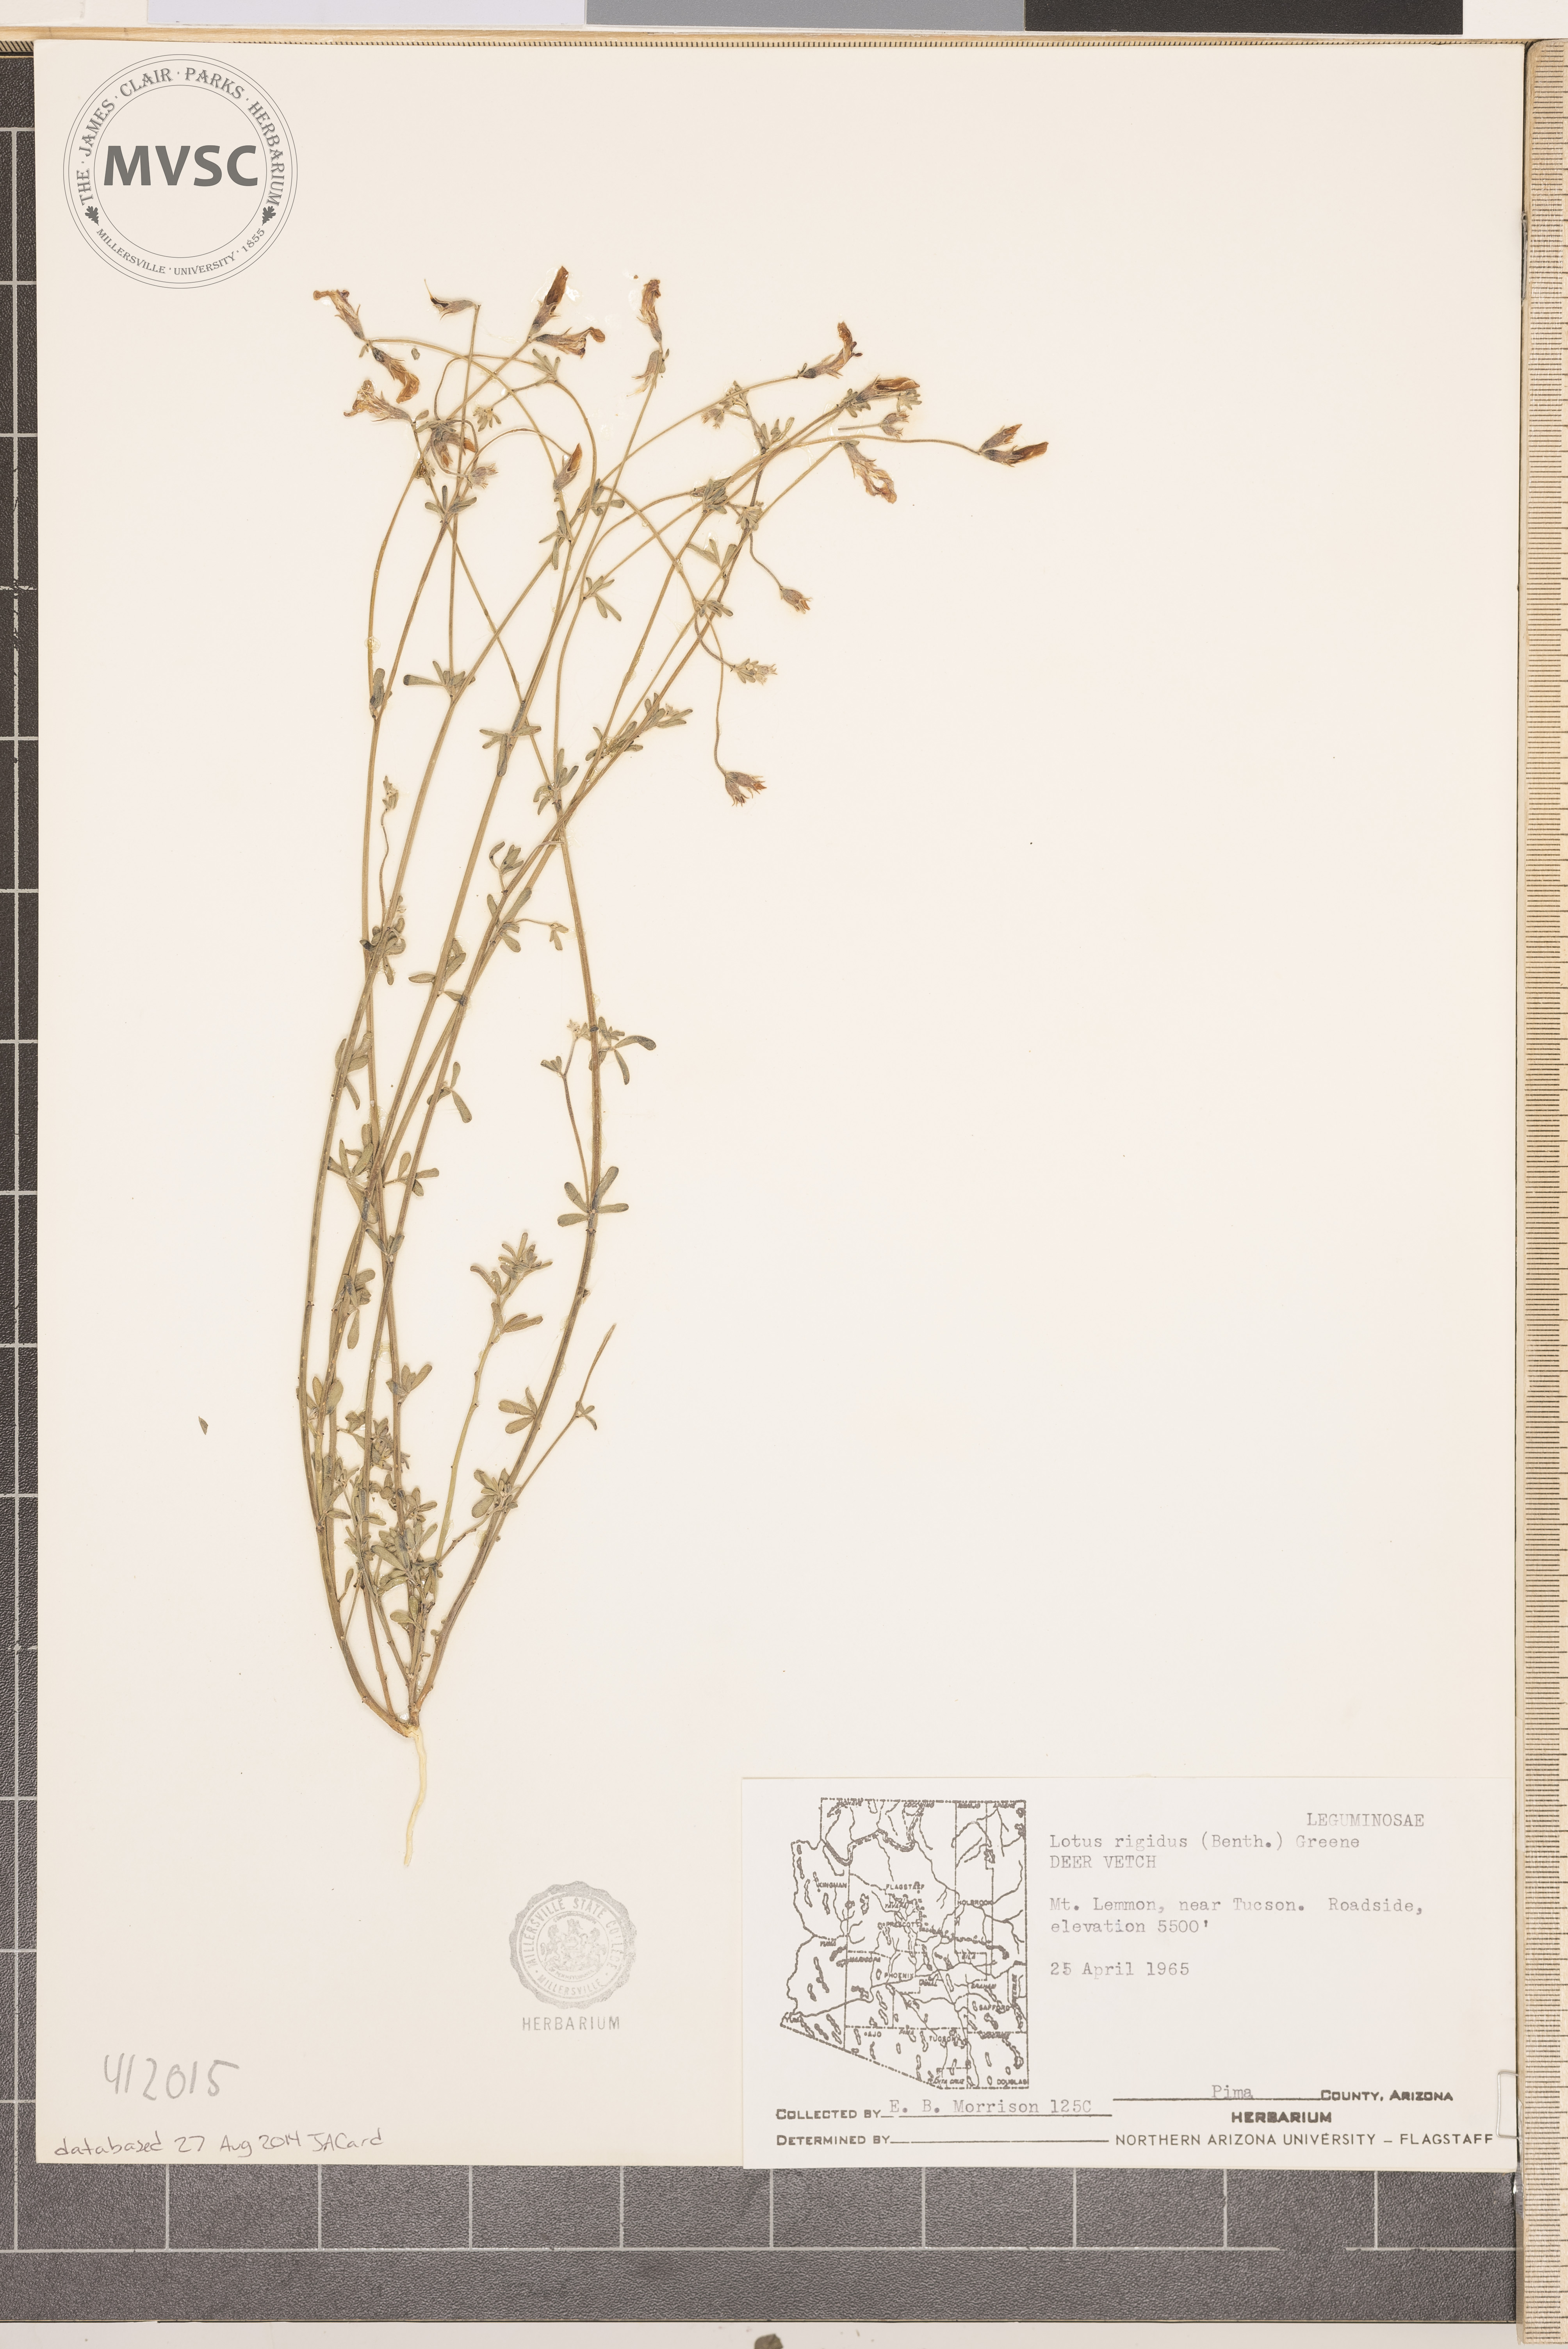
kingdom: Plantae
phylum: Tracheophyta
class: Magnoliopsida
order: Fabales
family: Fabaceae
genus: Acmispon
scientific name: Acmispon rigidus
